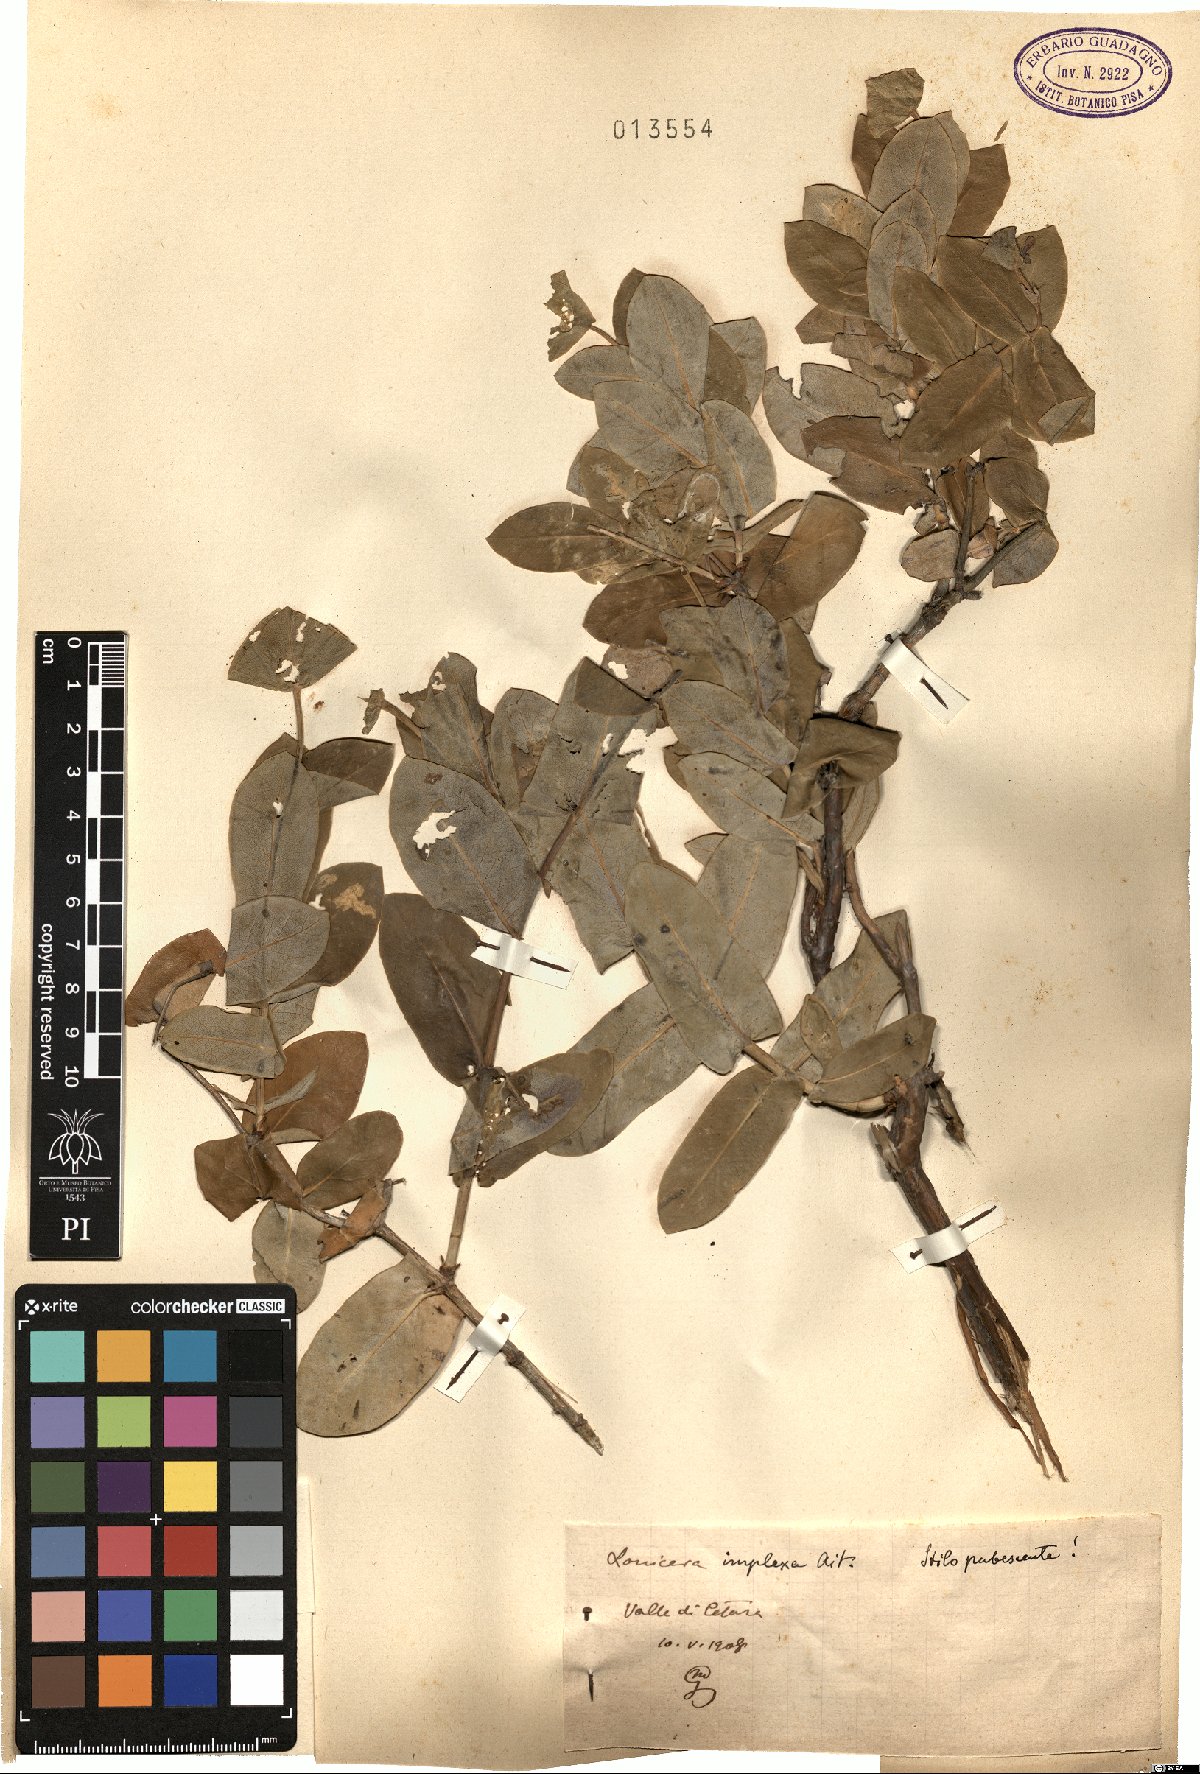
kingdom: Plantae
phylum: Tracheophyta
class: Magnoliopsida
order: Dipsacales
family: Caprifoliaceae
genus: Lonicera
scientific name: Lonicera implexa
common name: Minorca honeysuckle
